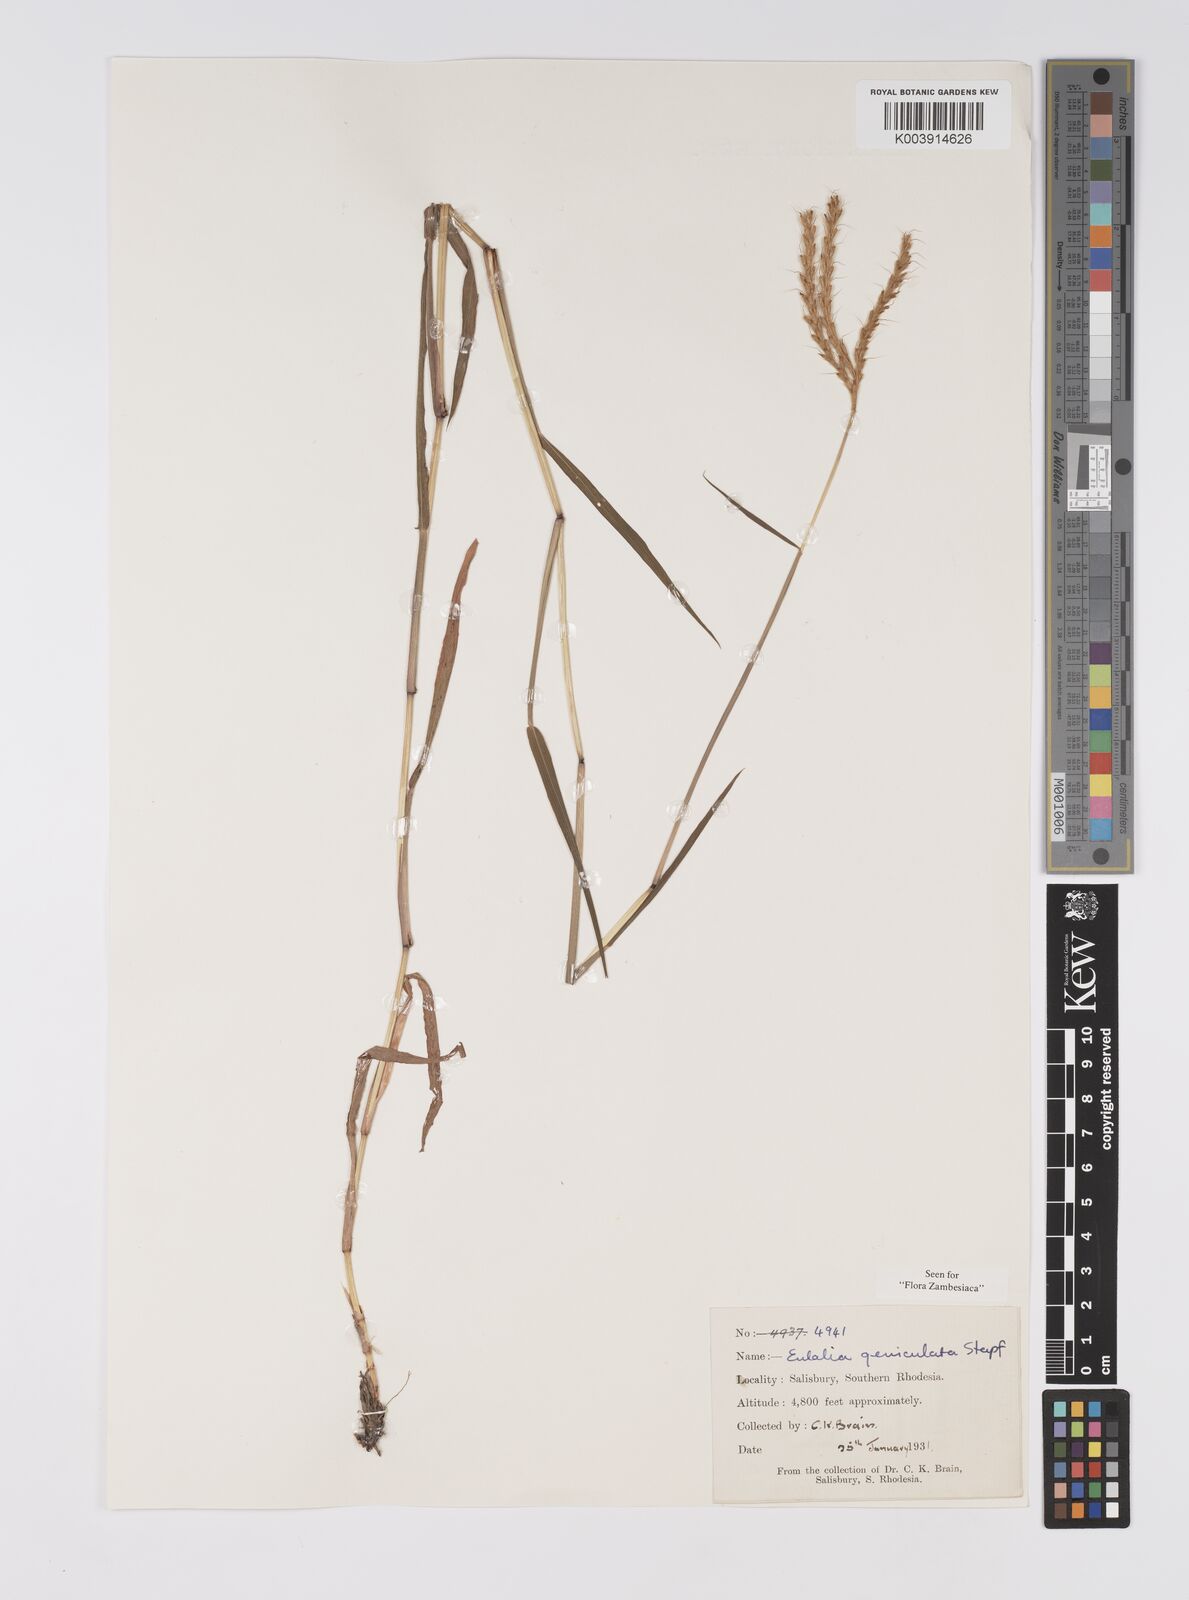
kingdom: Plantae
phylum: Tracheophyta
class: Liliopsida
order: Poales
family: Poaceae
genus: Eulalia
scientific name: Eulalia aurea
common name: Silky browntop
